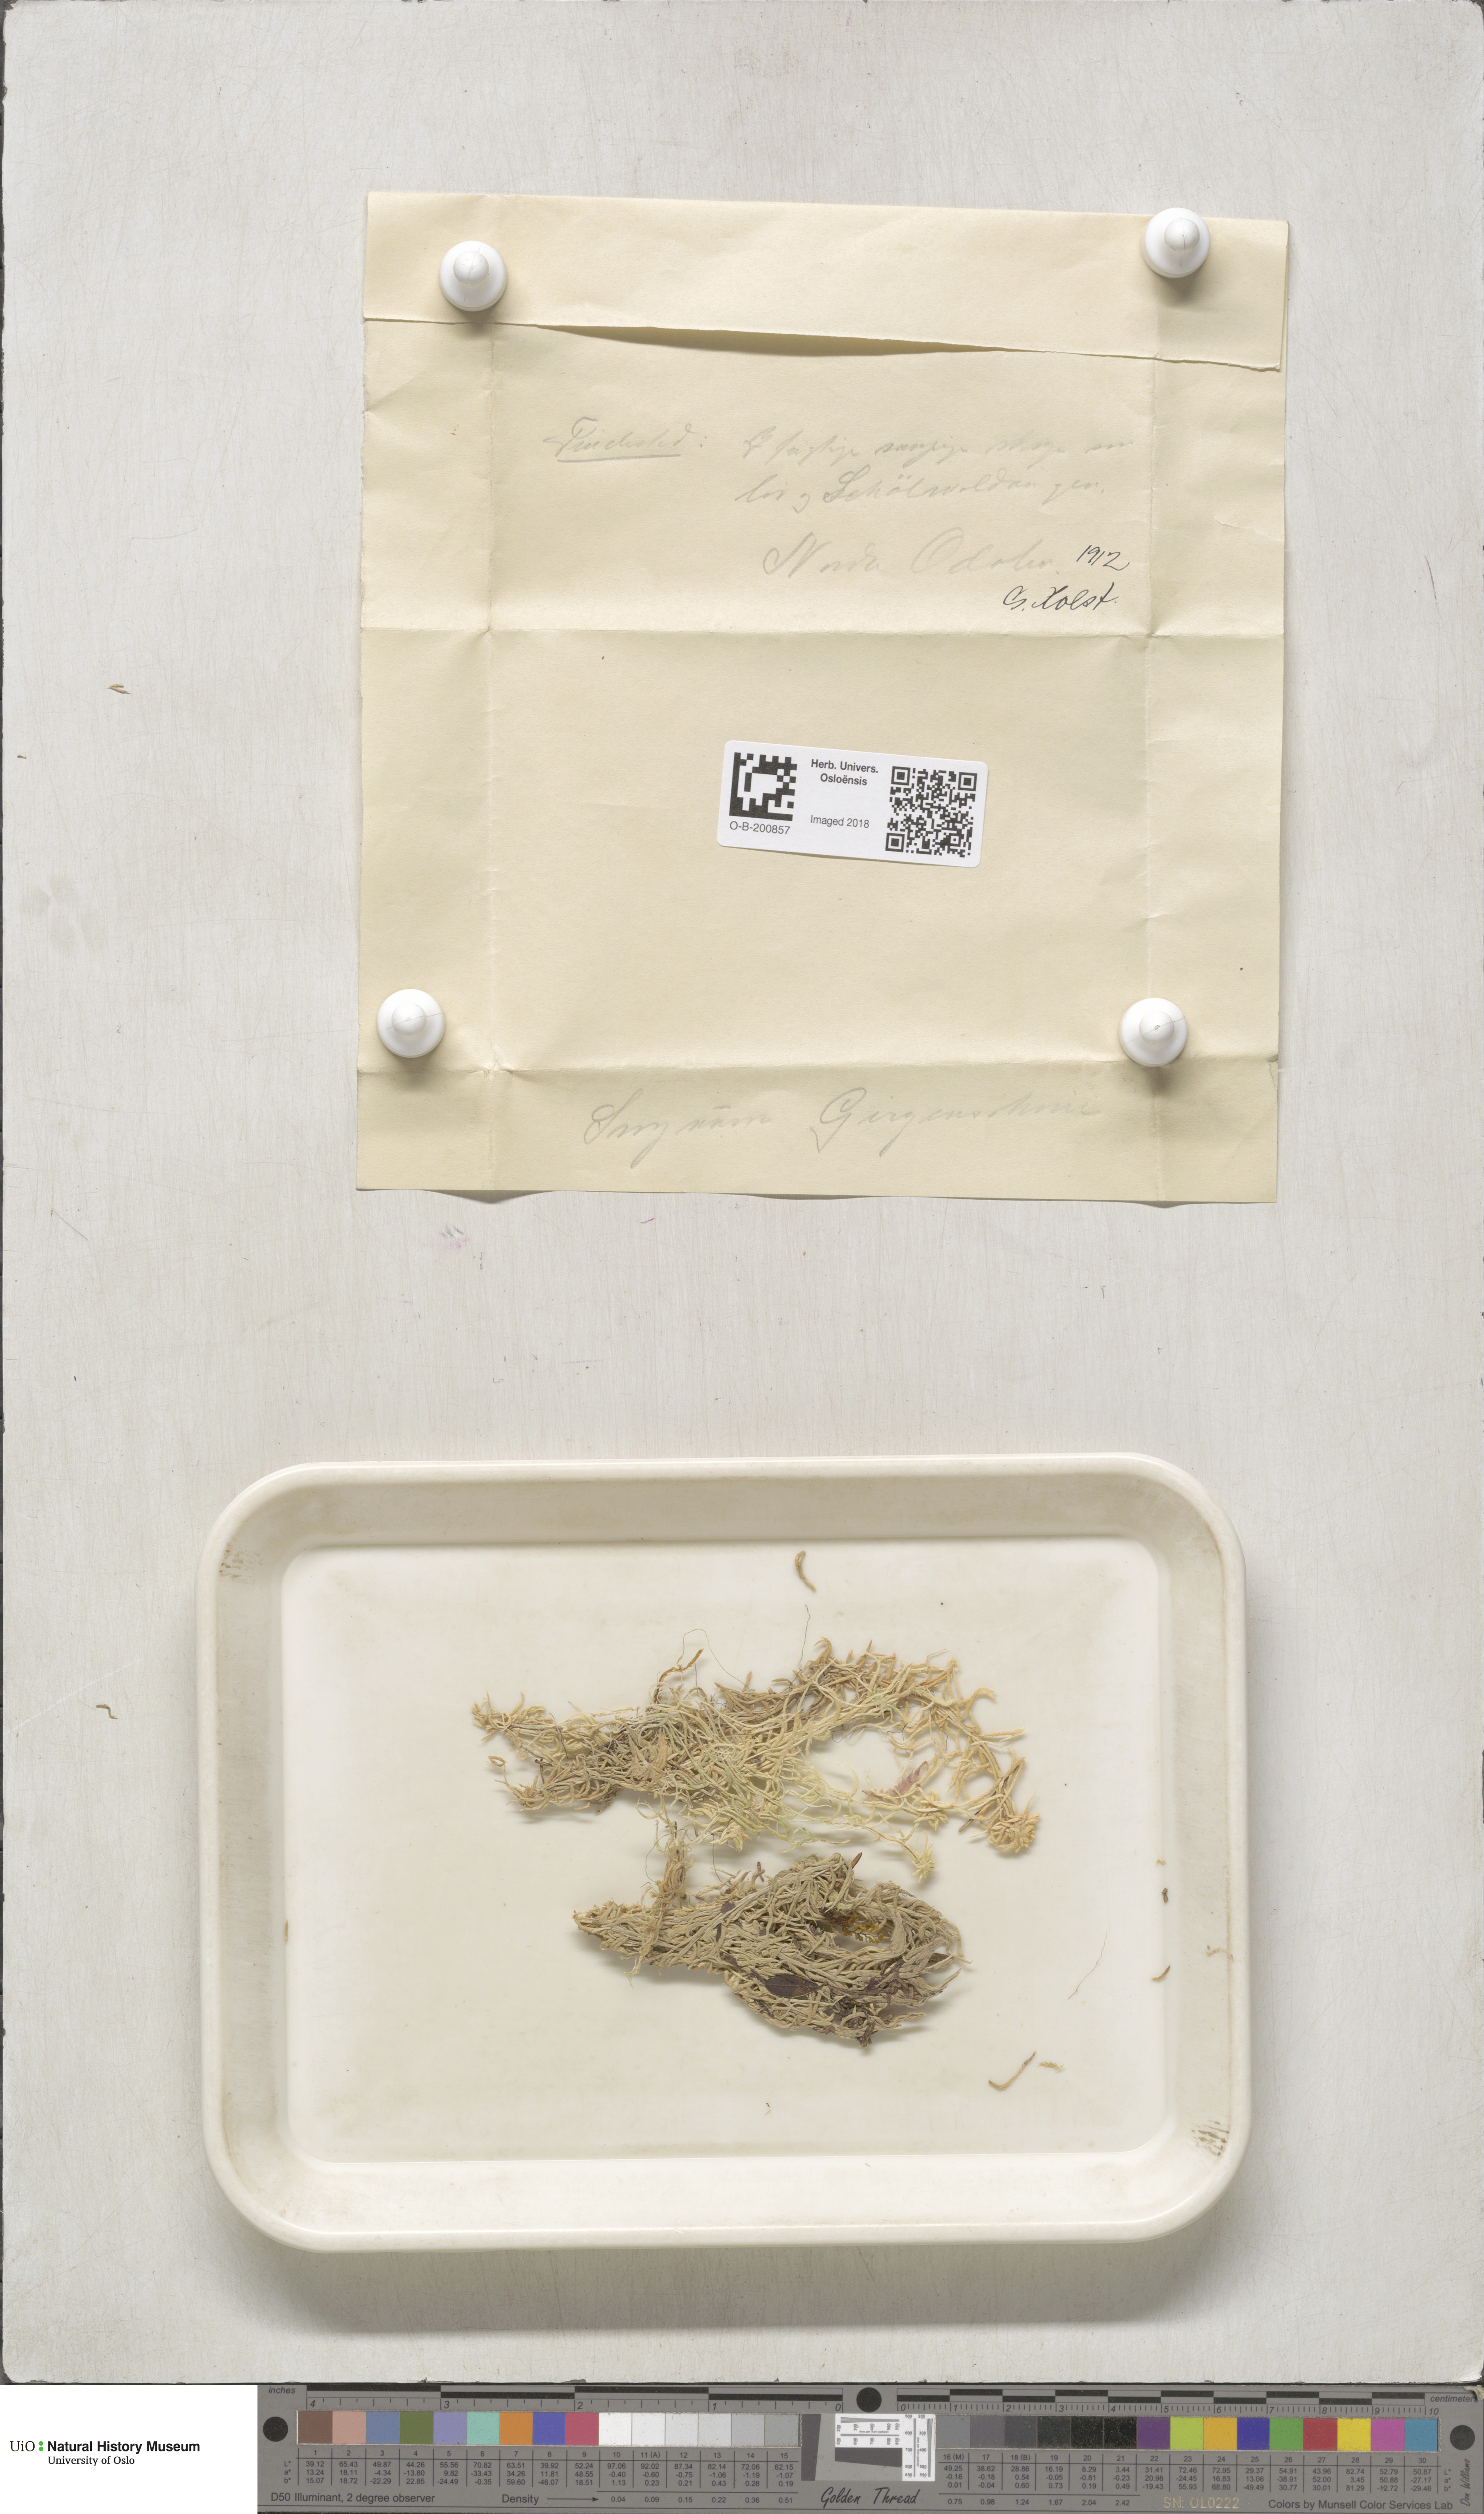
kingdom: Plantae
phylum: Bryophyta
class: Sphagnopsida
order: Sphagnales
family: Sphagnaceae
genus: Sphagnum
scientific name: Sphagnum girgensohnii
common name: Girgensohn's peat moss
